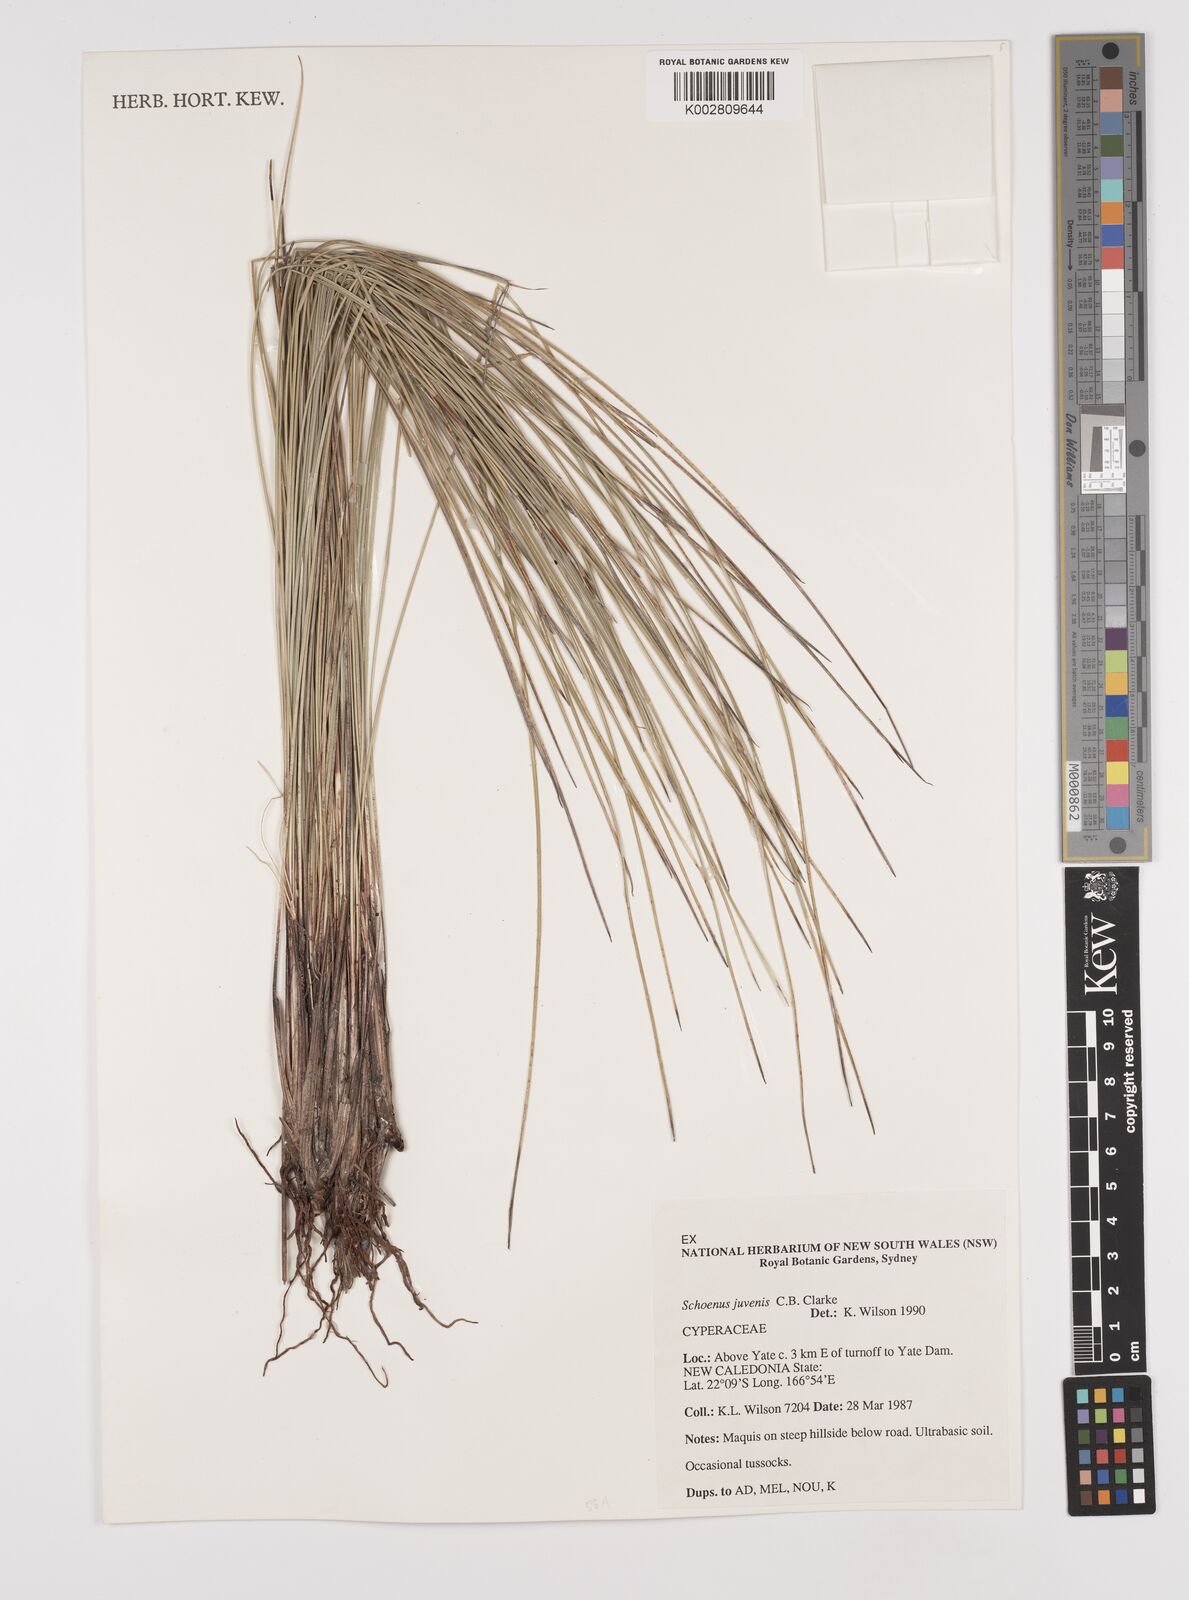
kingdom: Plantae
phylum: Tracheophyta
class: Liliopsida
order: Poales
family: Cyperaceae
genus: Schoenus
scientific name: Schoenus neocaledonicus
